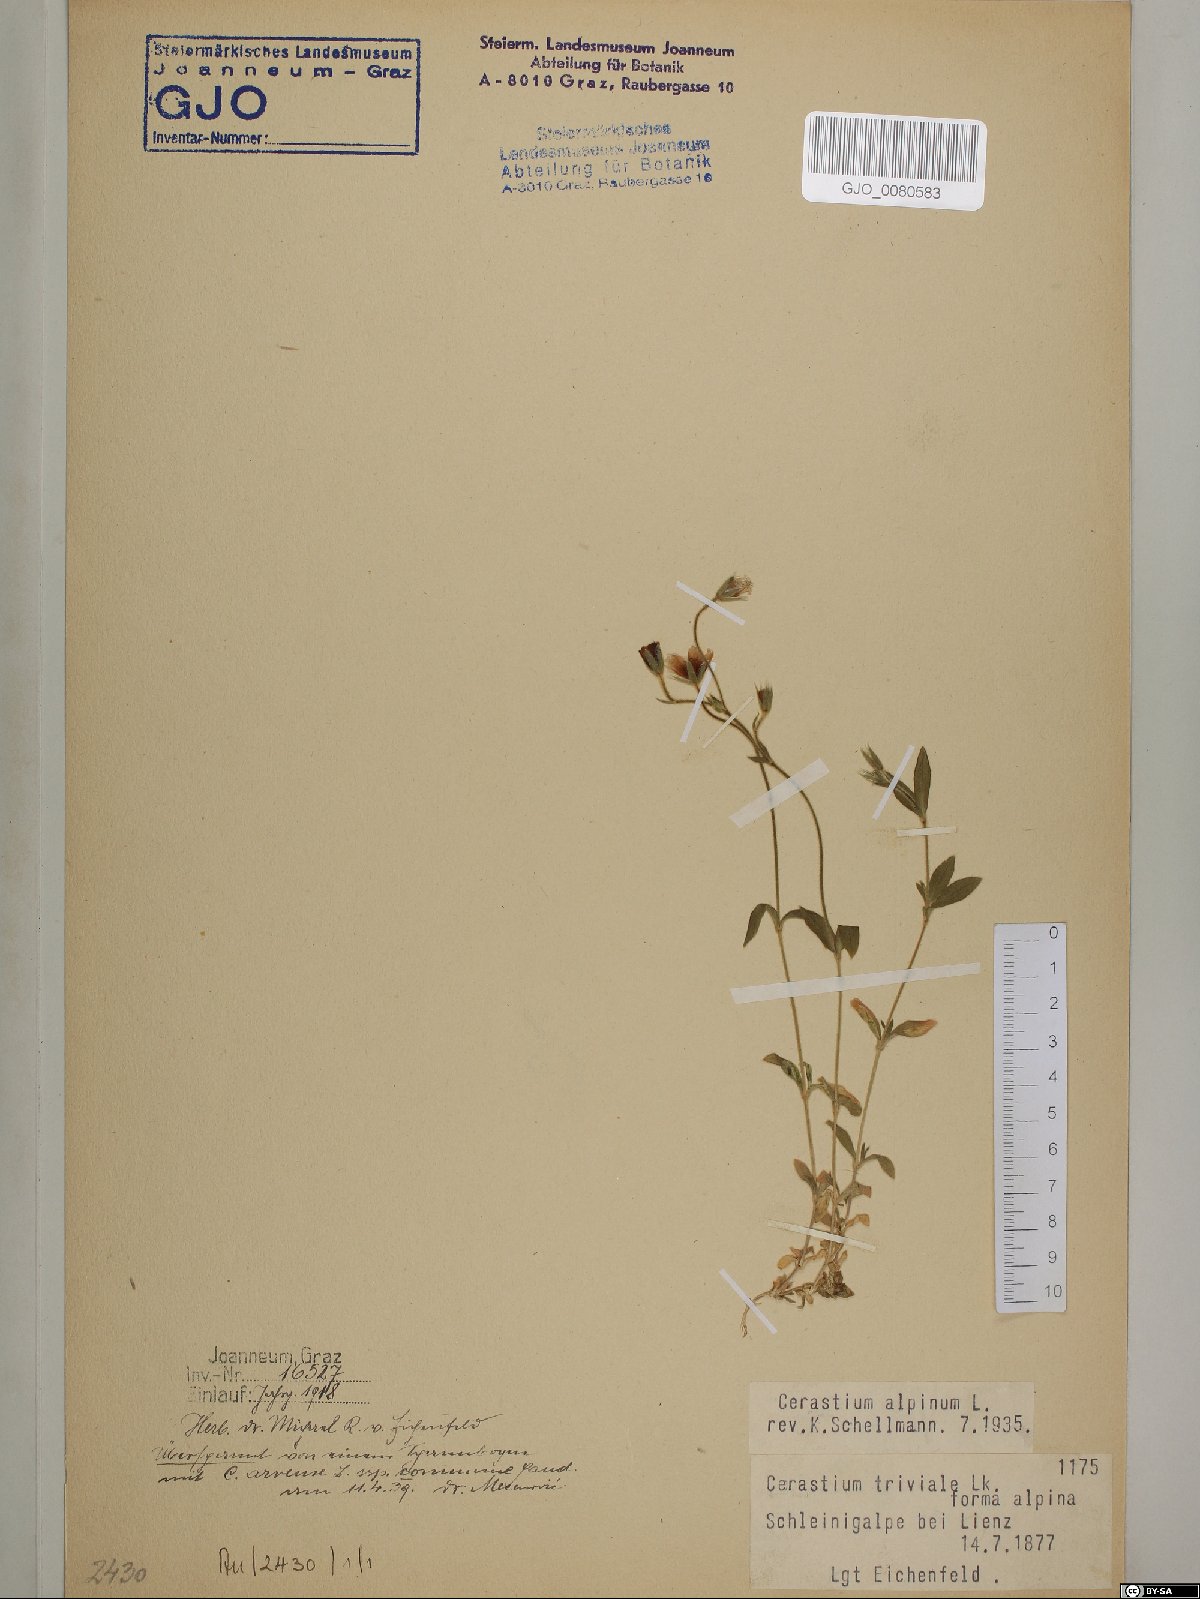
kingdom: Plantae
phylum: Tracheophyta
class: Magnoliopsida
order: Caryophyllales
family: Caryophyllaceae
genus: Cerastium
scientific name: Cerastium alpinum
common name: Alpine mouse-ear
